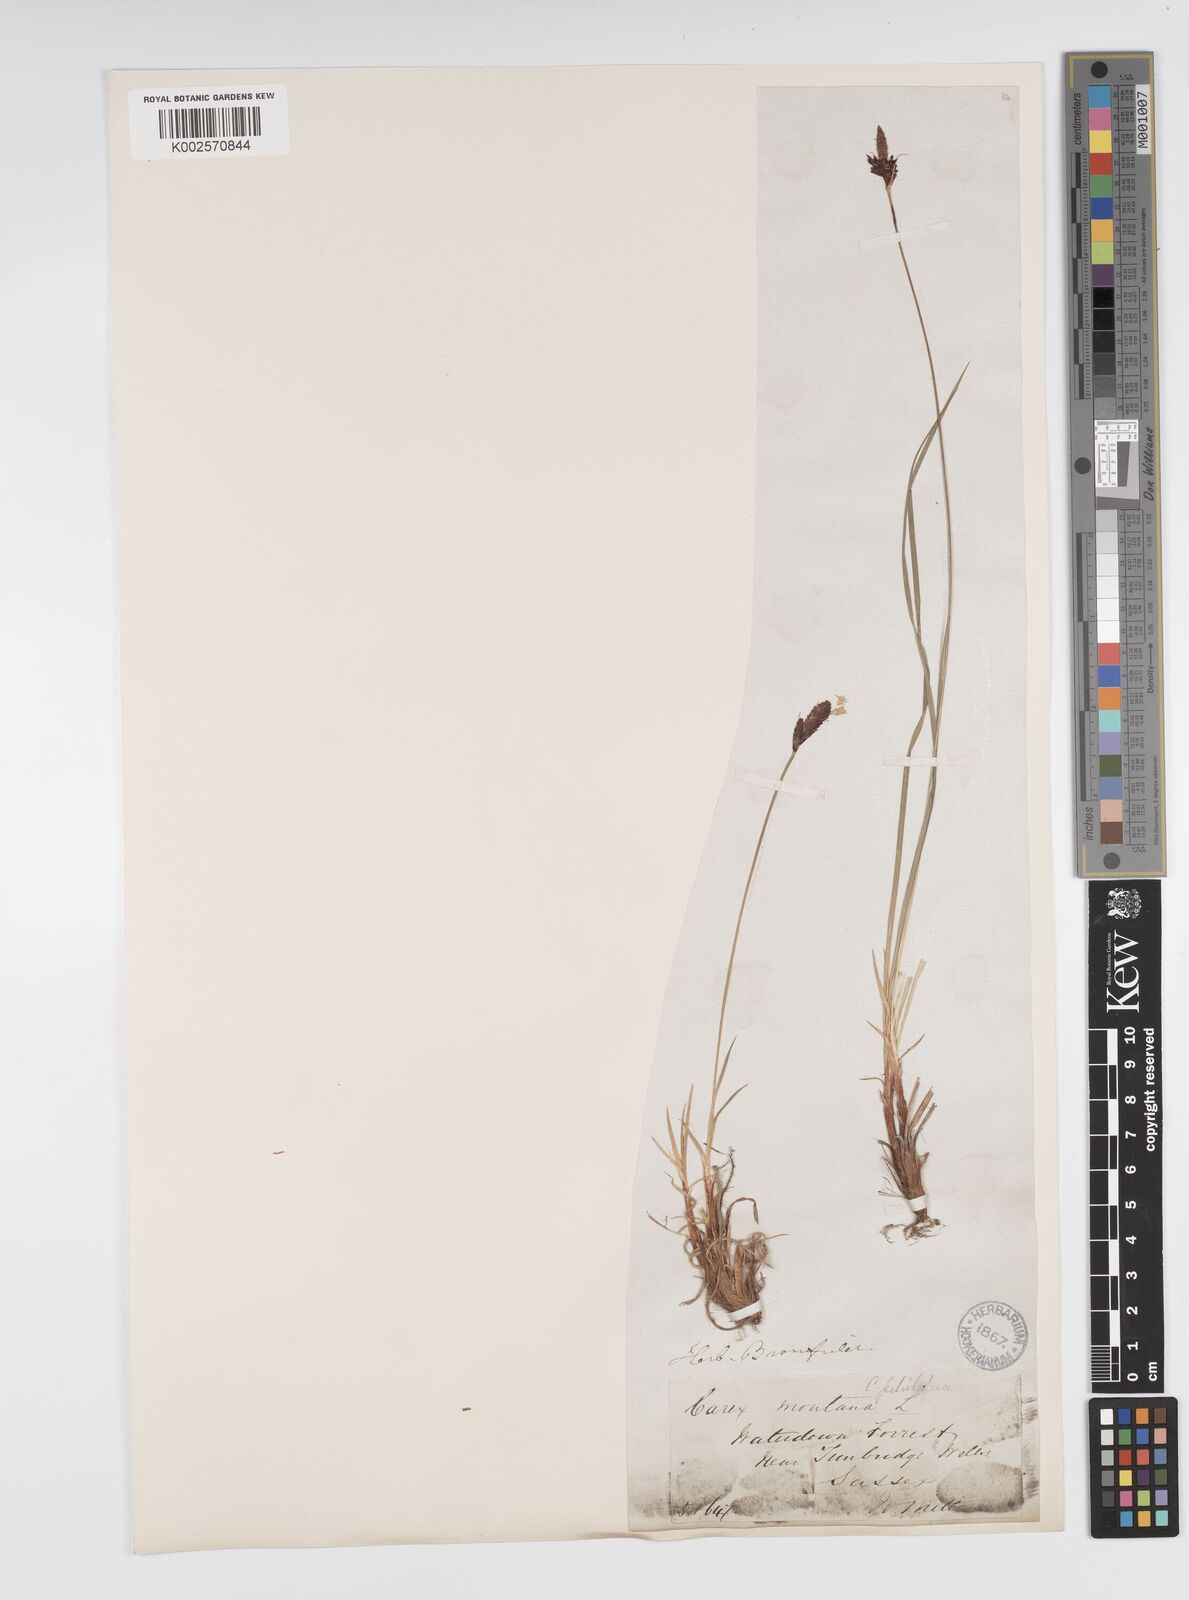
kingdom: Plantae
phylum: Tracheophyta
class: Liliopsida
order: Poales
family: Cyperaceae
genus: Carex
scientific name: Carex montana
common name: Soft-leaved sedge
